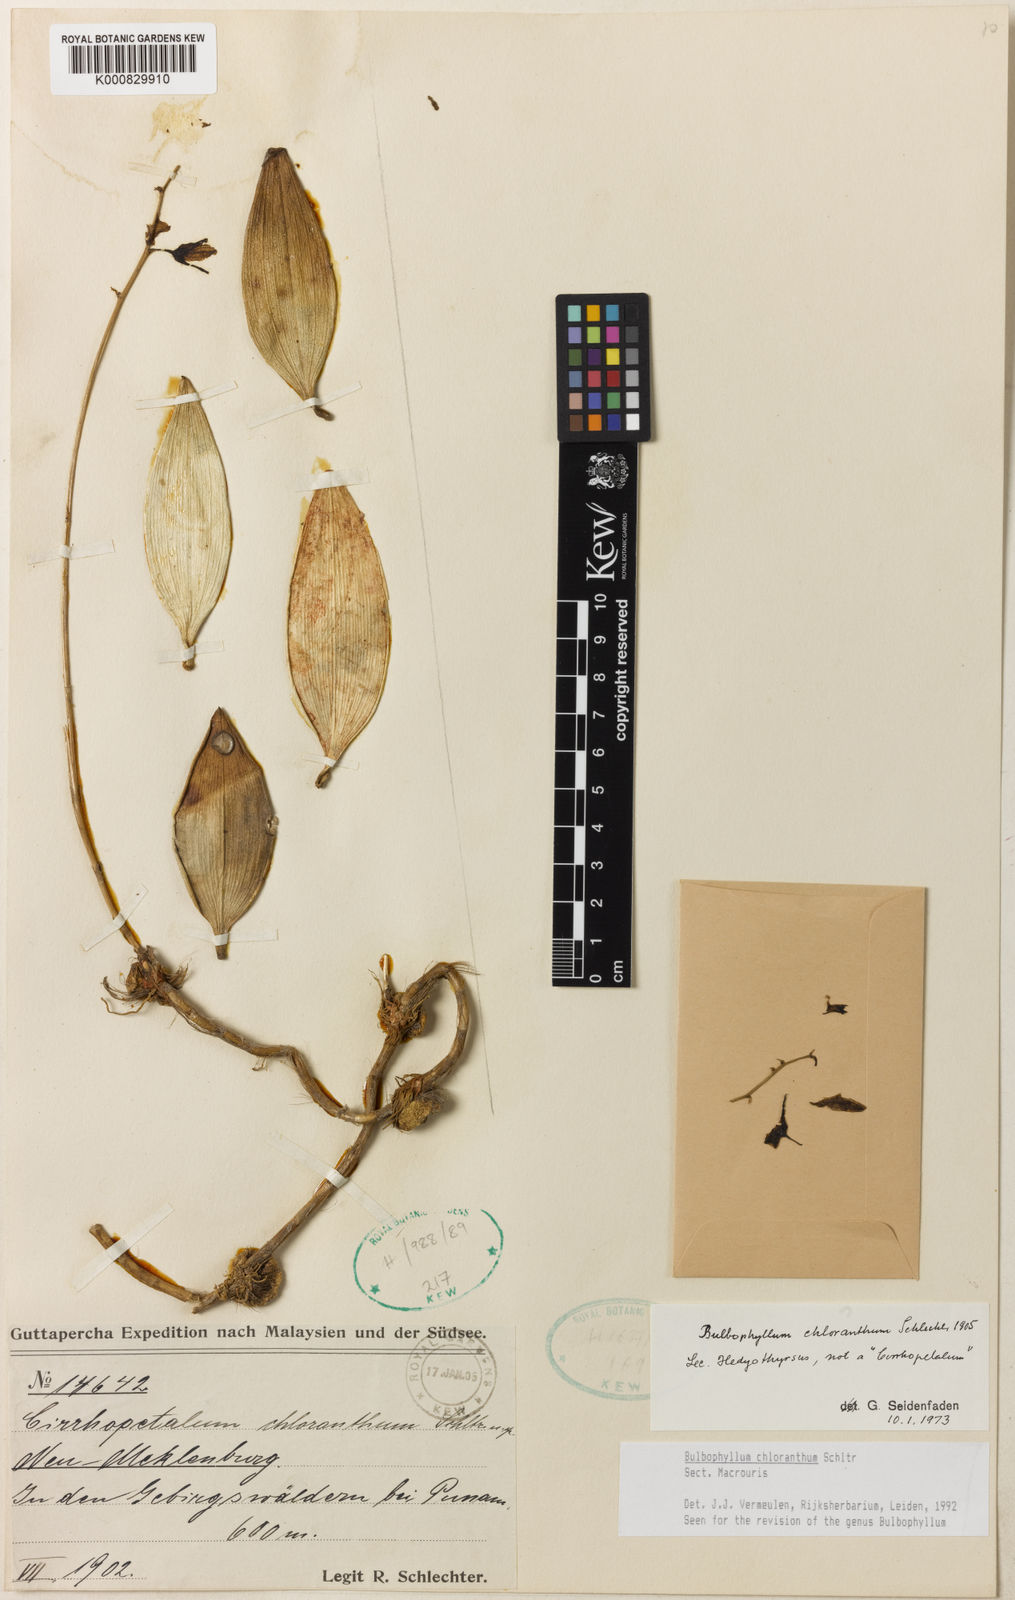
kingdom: Plantae
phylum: Tracheophyta
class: Liliopsida
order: Asparagales
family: Orchidaceae
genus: Bulbophyllum
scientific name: Bulbophyllum
